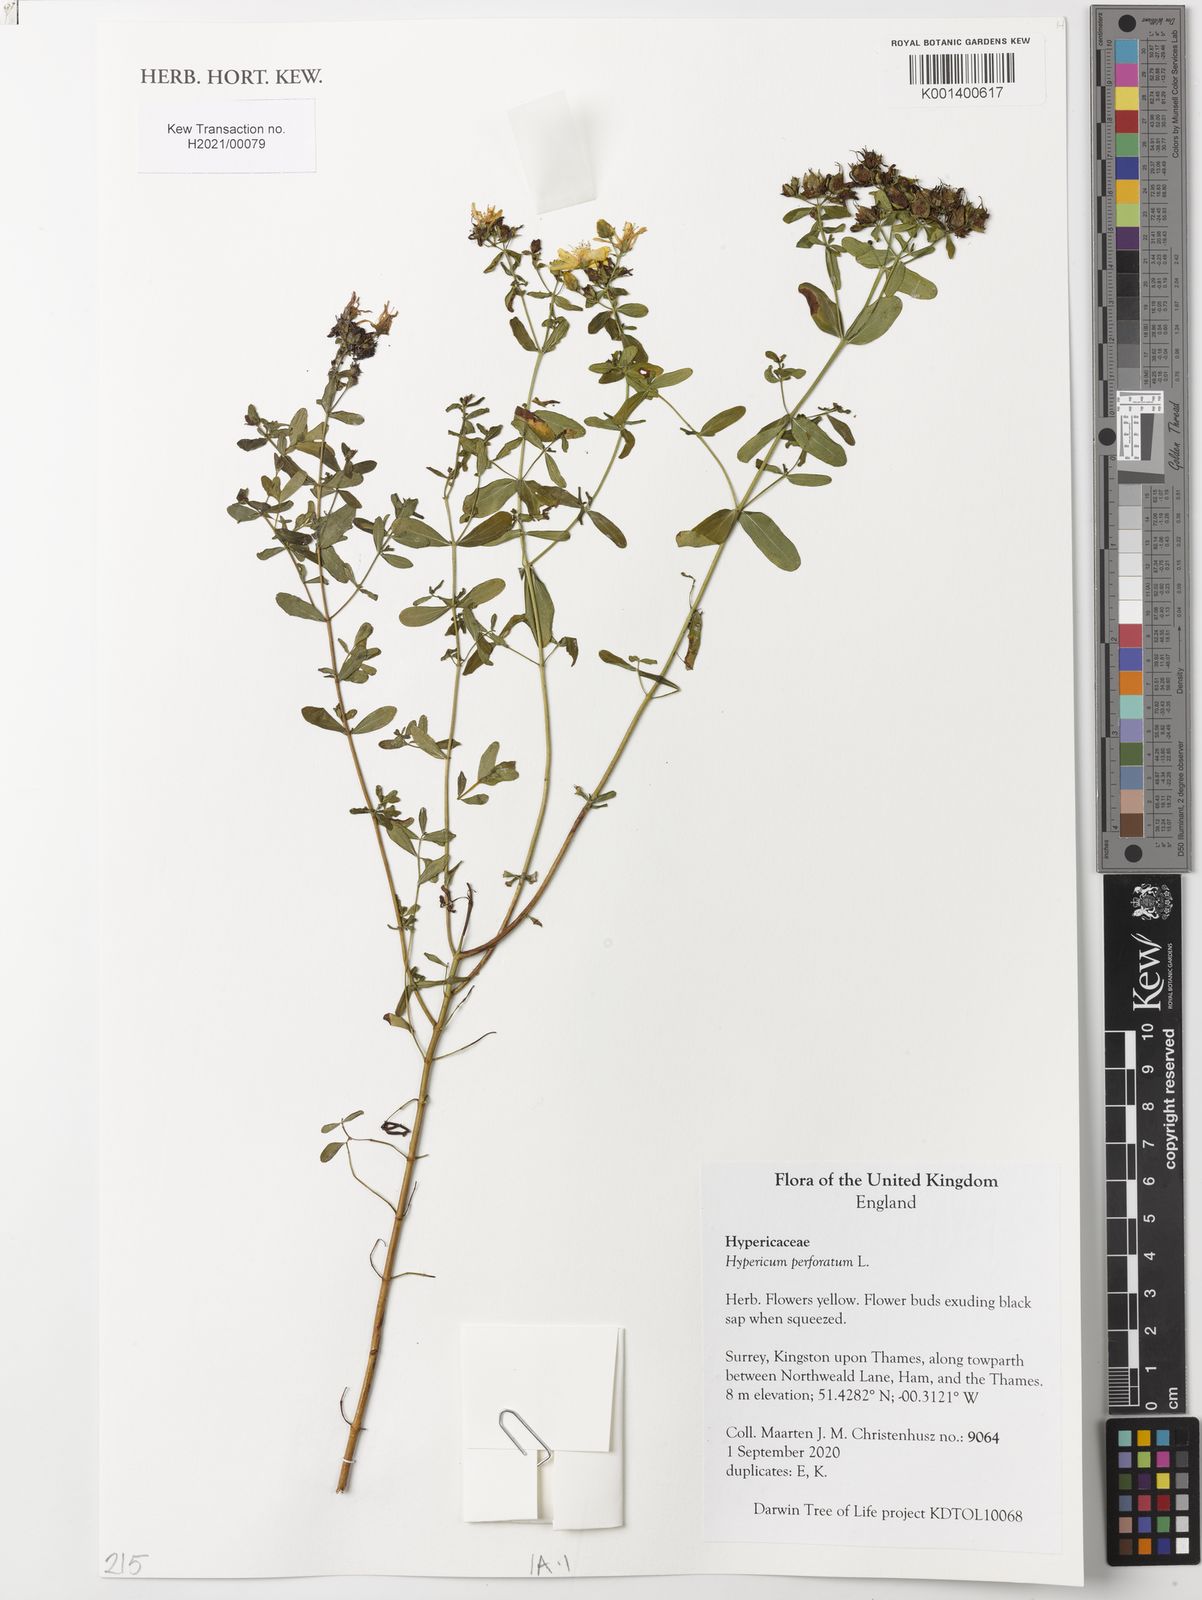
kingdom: Plantae
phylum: Tracheophyta
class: Magnoliopsida
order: Malpighiales
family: Hypericaceae
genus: Hypericum
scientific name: Hypericum perforatum
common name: Common st. johnswort
